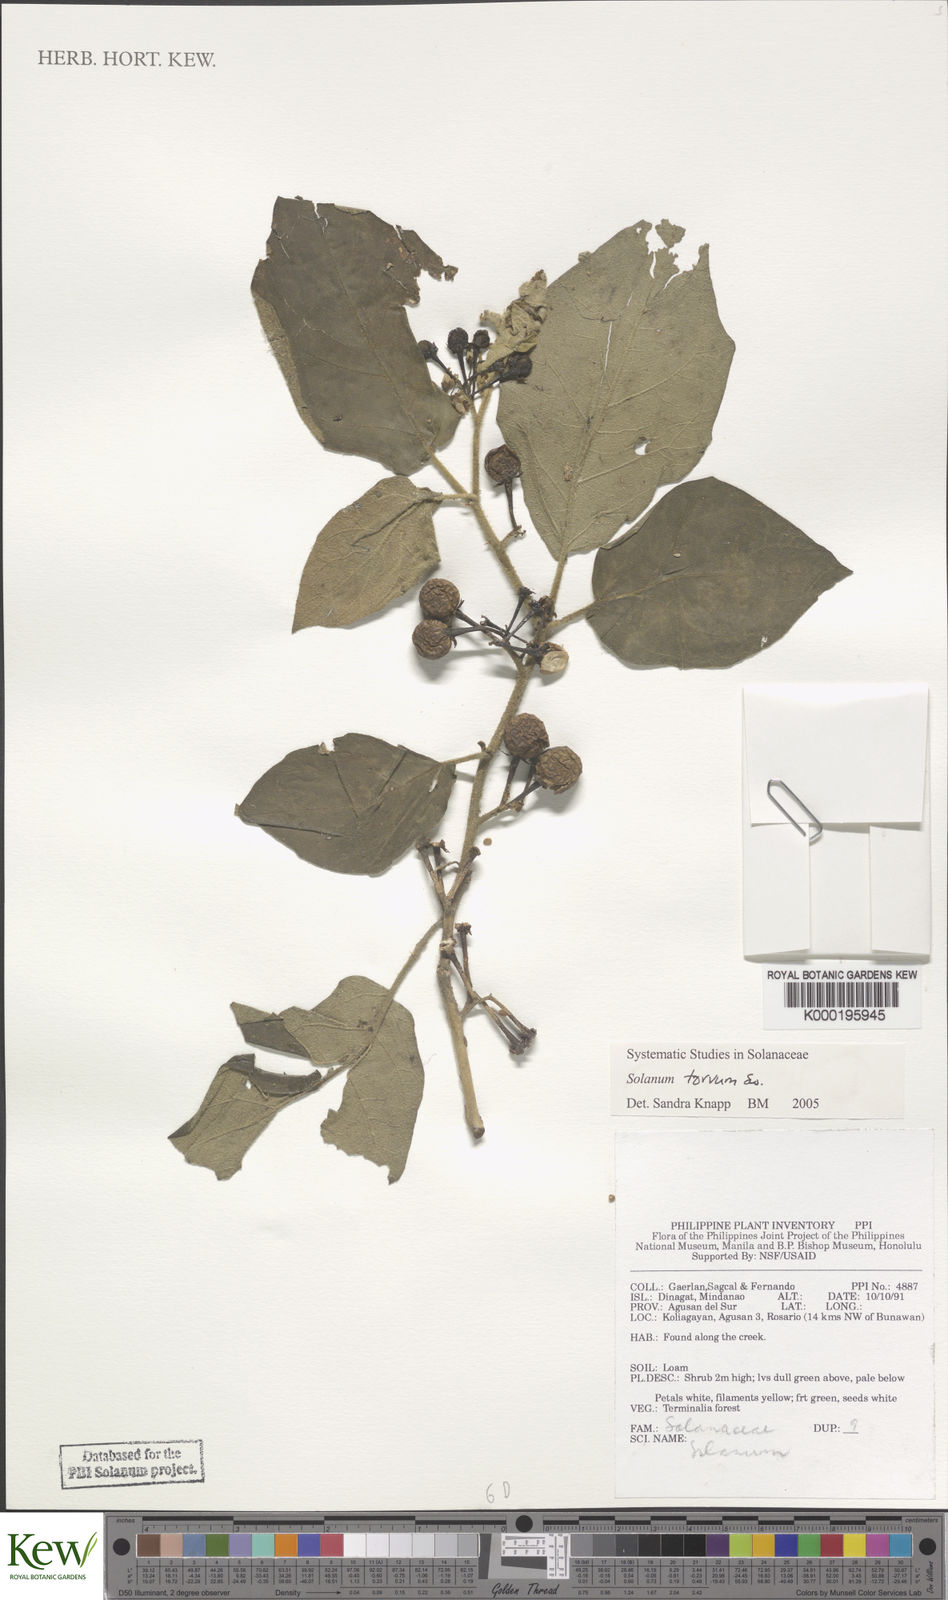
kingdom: Plantae
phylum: Tracheophyta
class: Magnoliopsida
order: Solanales
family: Solanaceae
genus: Solanum
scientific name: Solanum torvum
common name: Turkey berry
